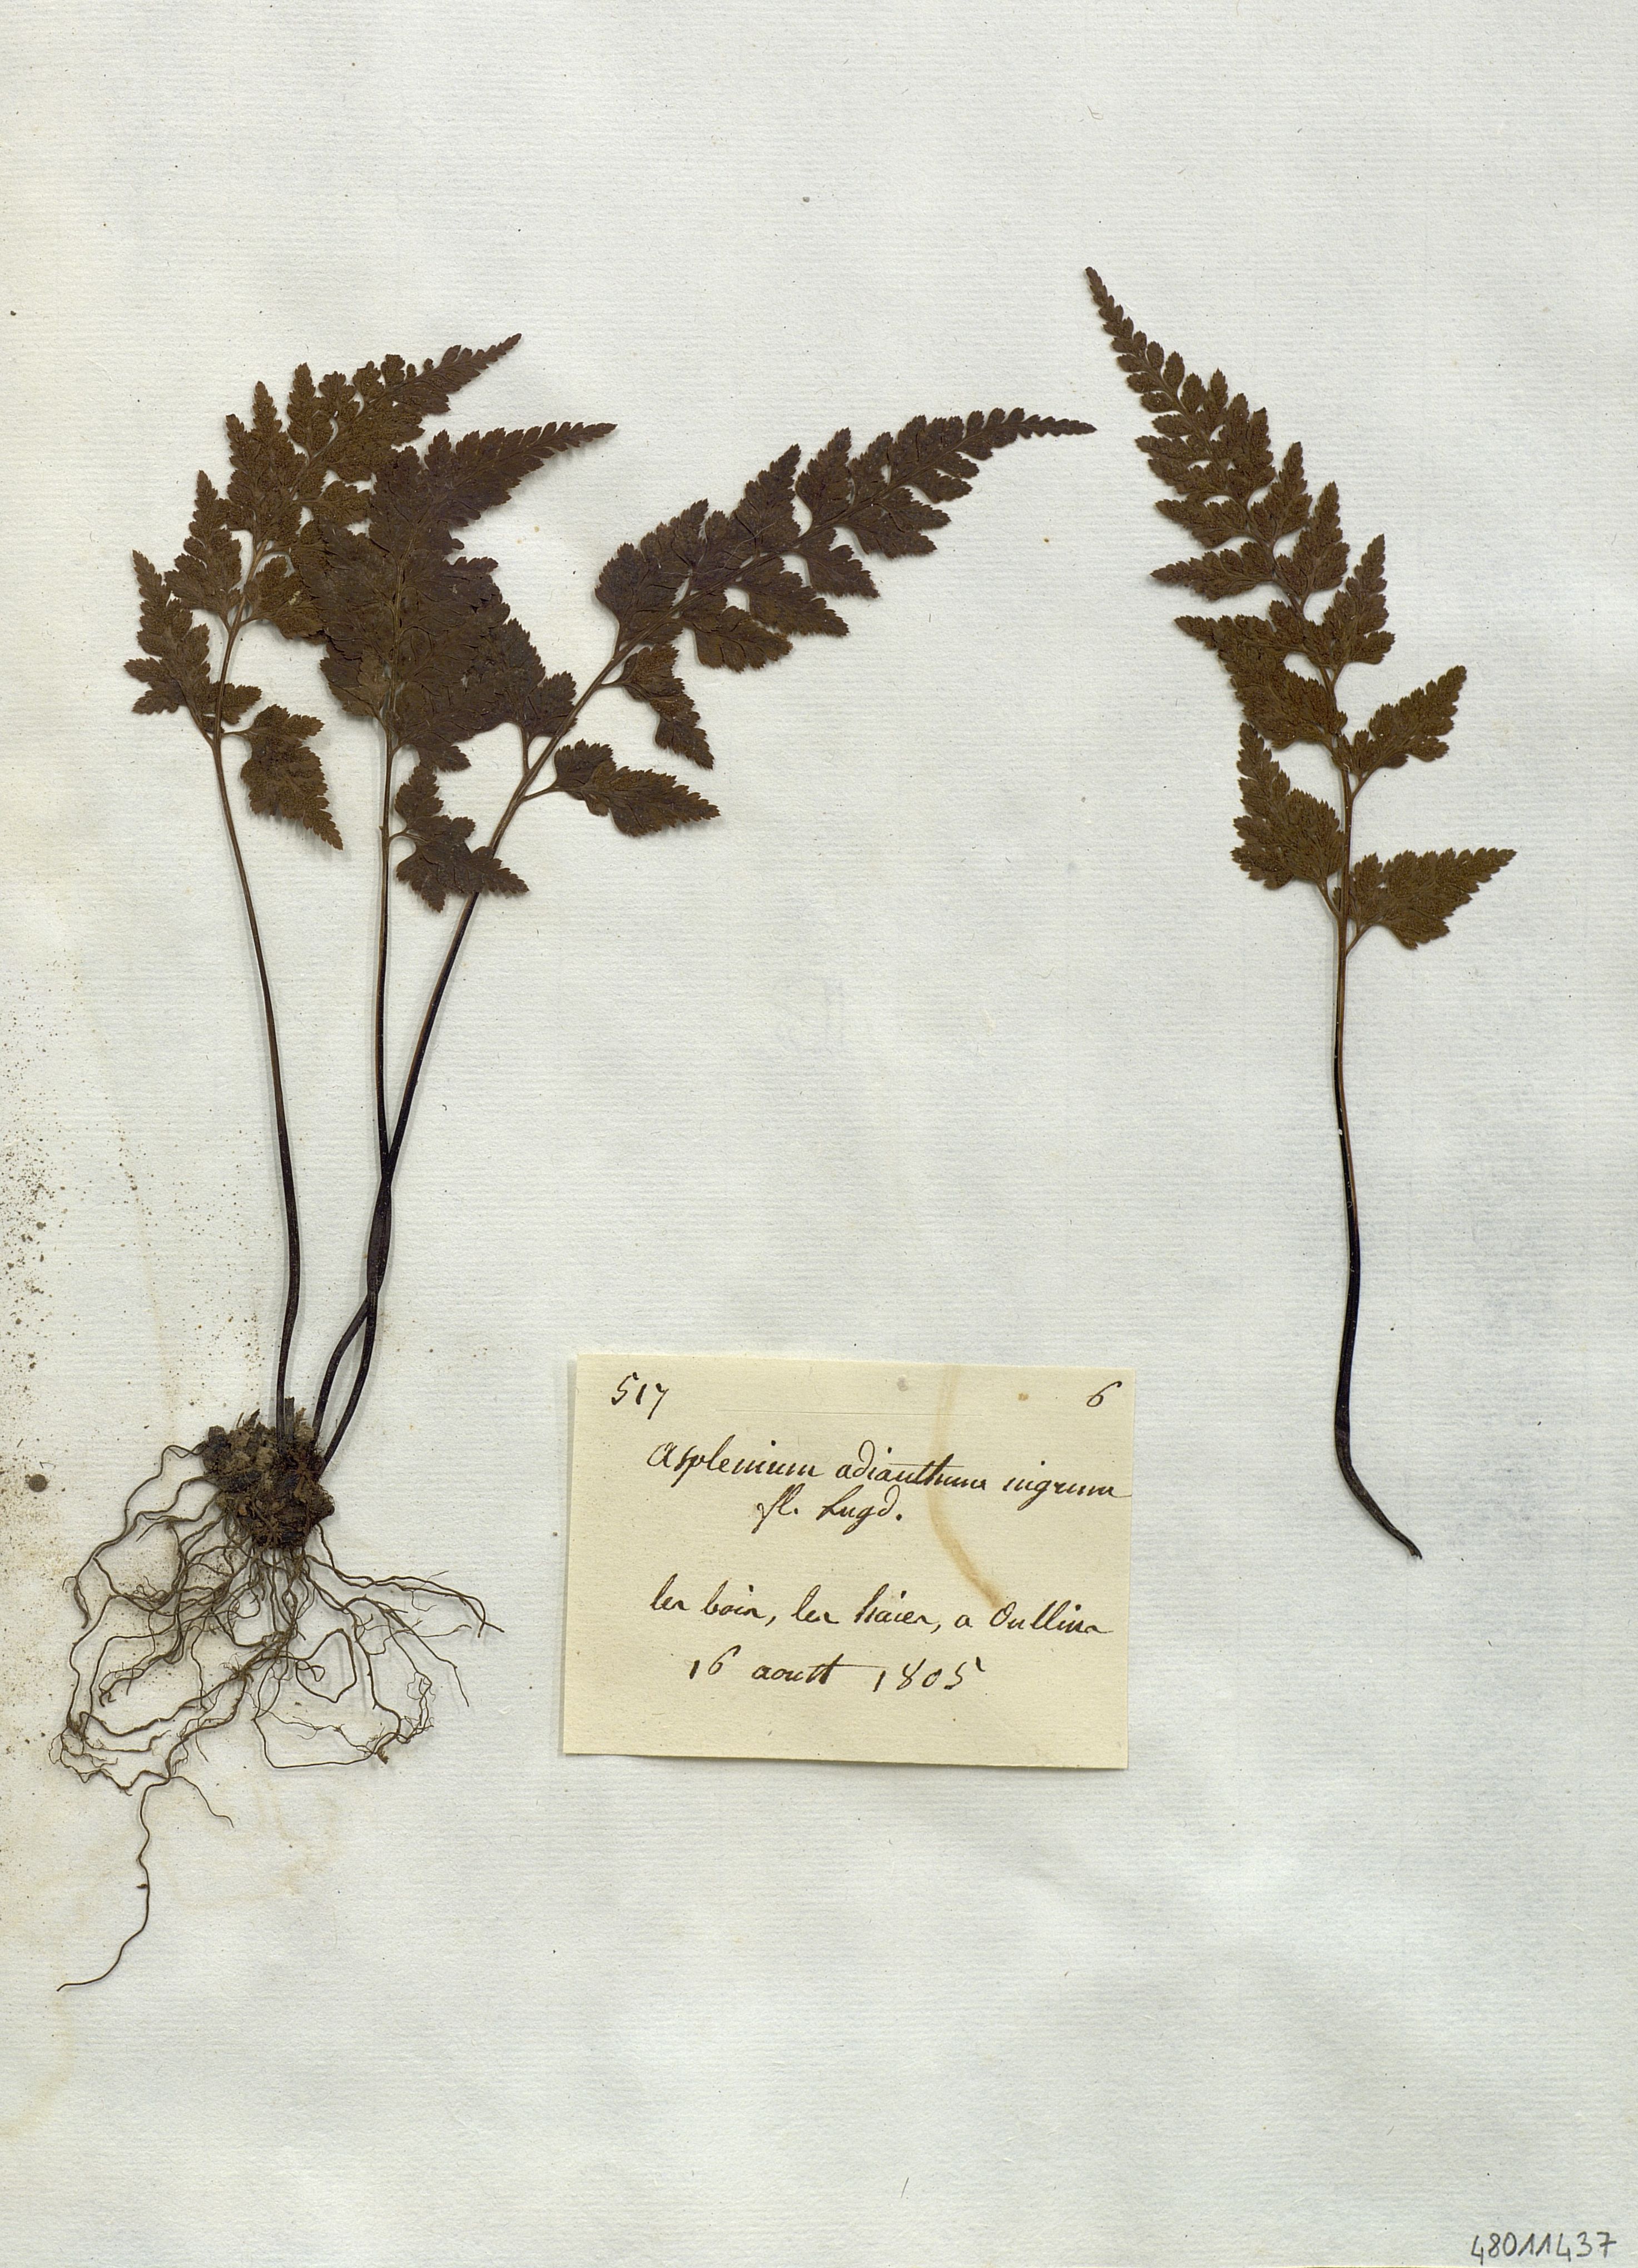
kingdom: Plantae
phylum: Tracheophyta
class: Polypodiopsida
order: Polypodiales
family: Aspleniaceae
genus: Asplenium
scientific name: Asplenium adiantum-nigrum
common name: Black spleenwort
